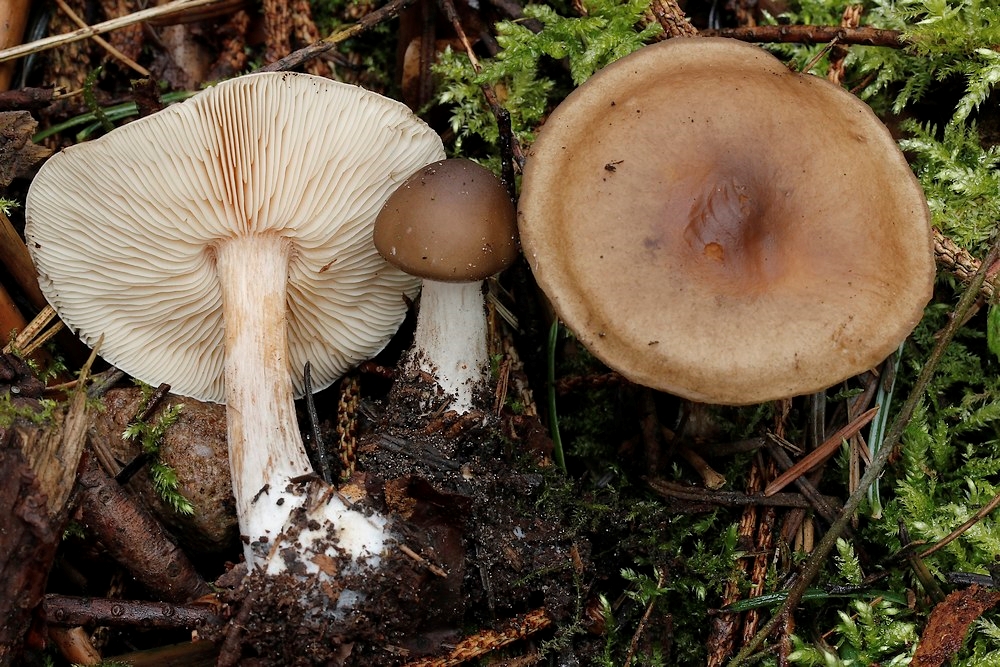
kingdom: Fungi
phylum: Basidiomycota
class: Agaricomycetes
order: Agaricales
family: Tricholomataceae
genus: Melanoleuca
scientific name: Melanoleuca cognata
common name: gyldengrå munkehat
